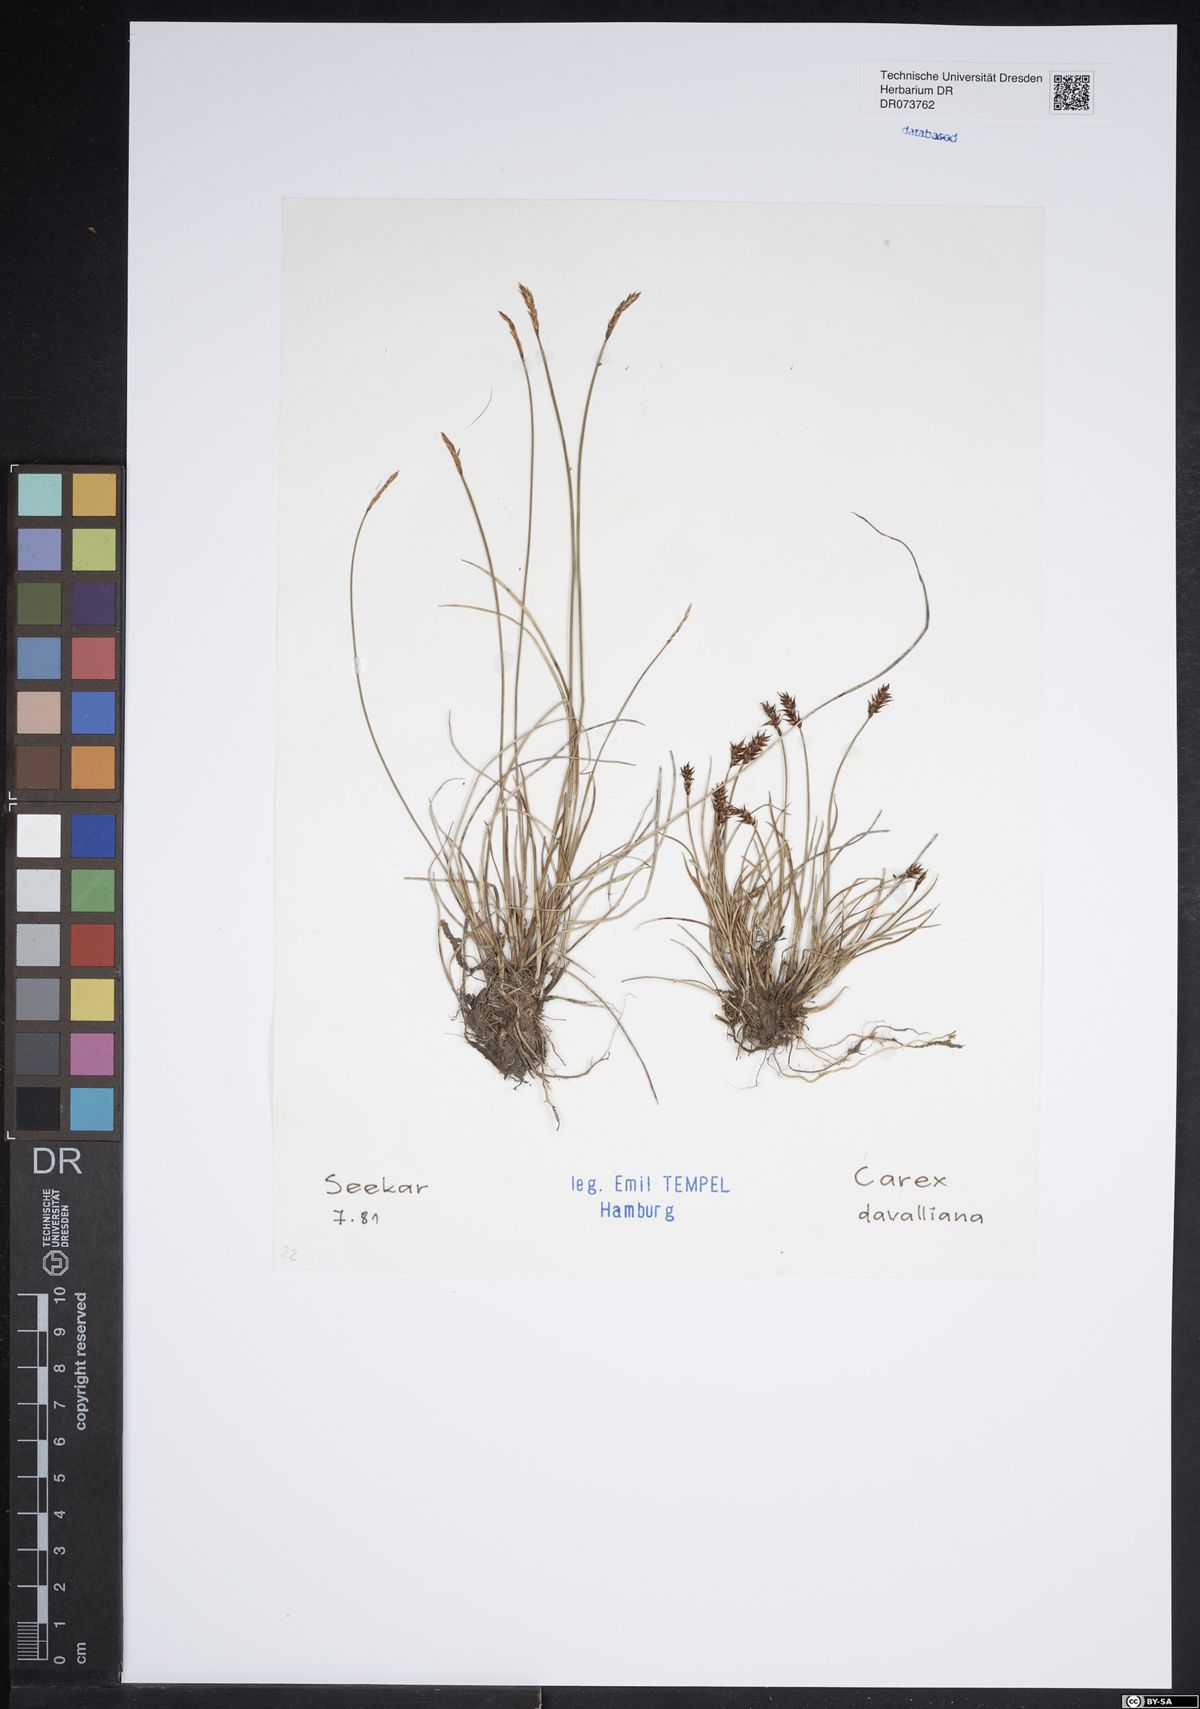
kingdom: Plantae
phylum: Tracheophyta
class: Liliopsida
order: Poales
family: Cyperaceae
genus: Carex
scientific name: Carex davalliana
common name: Davall's sedge
